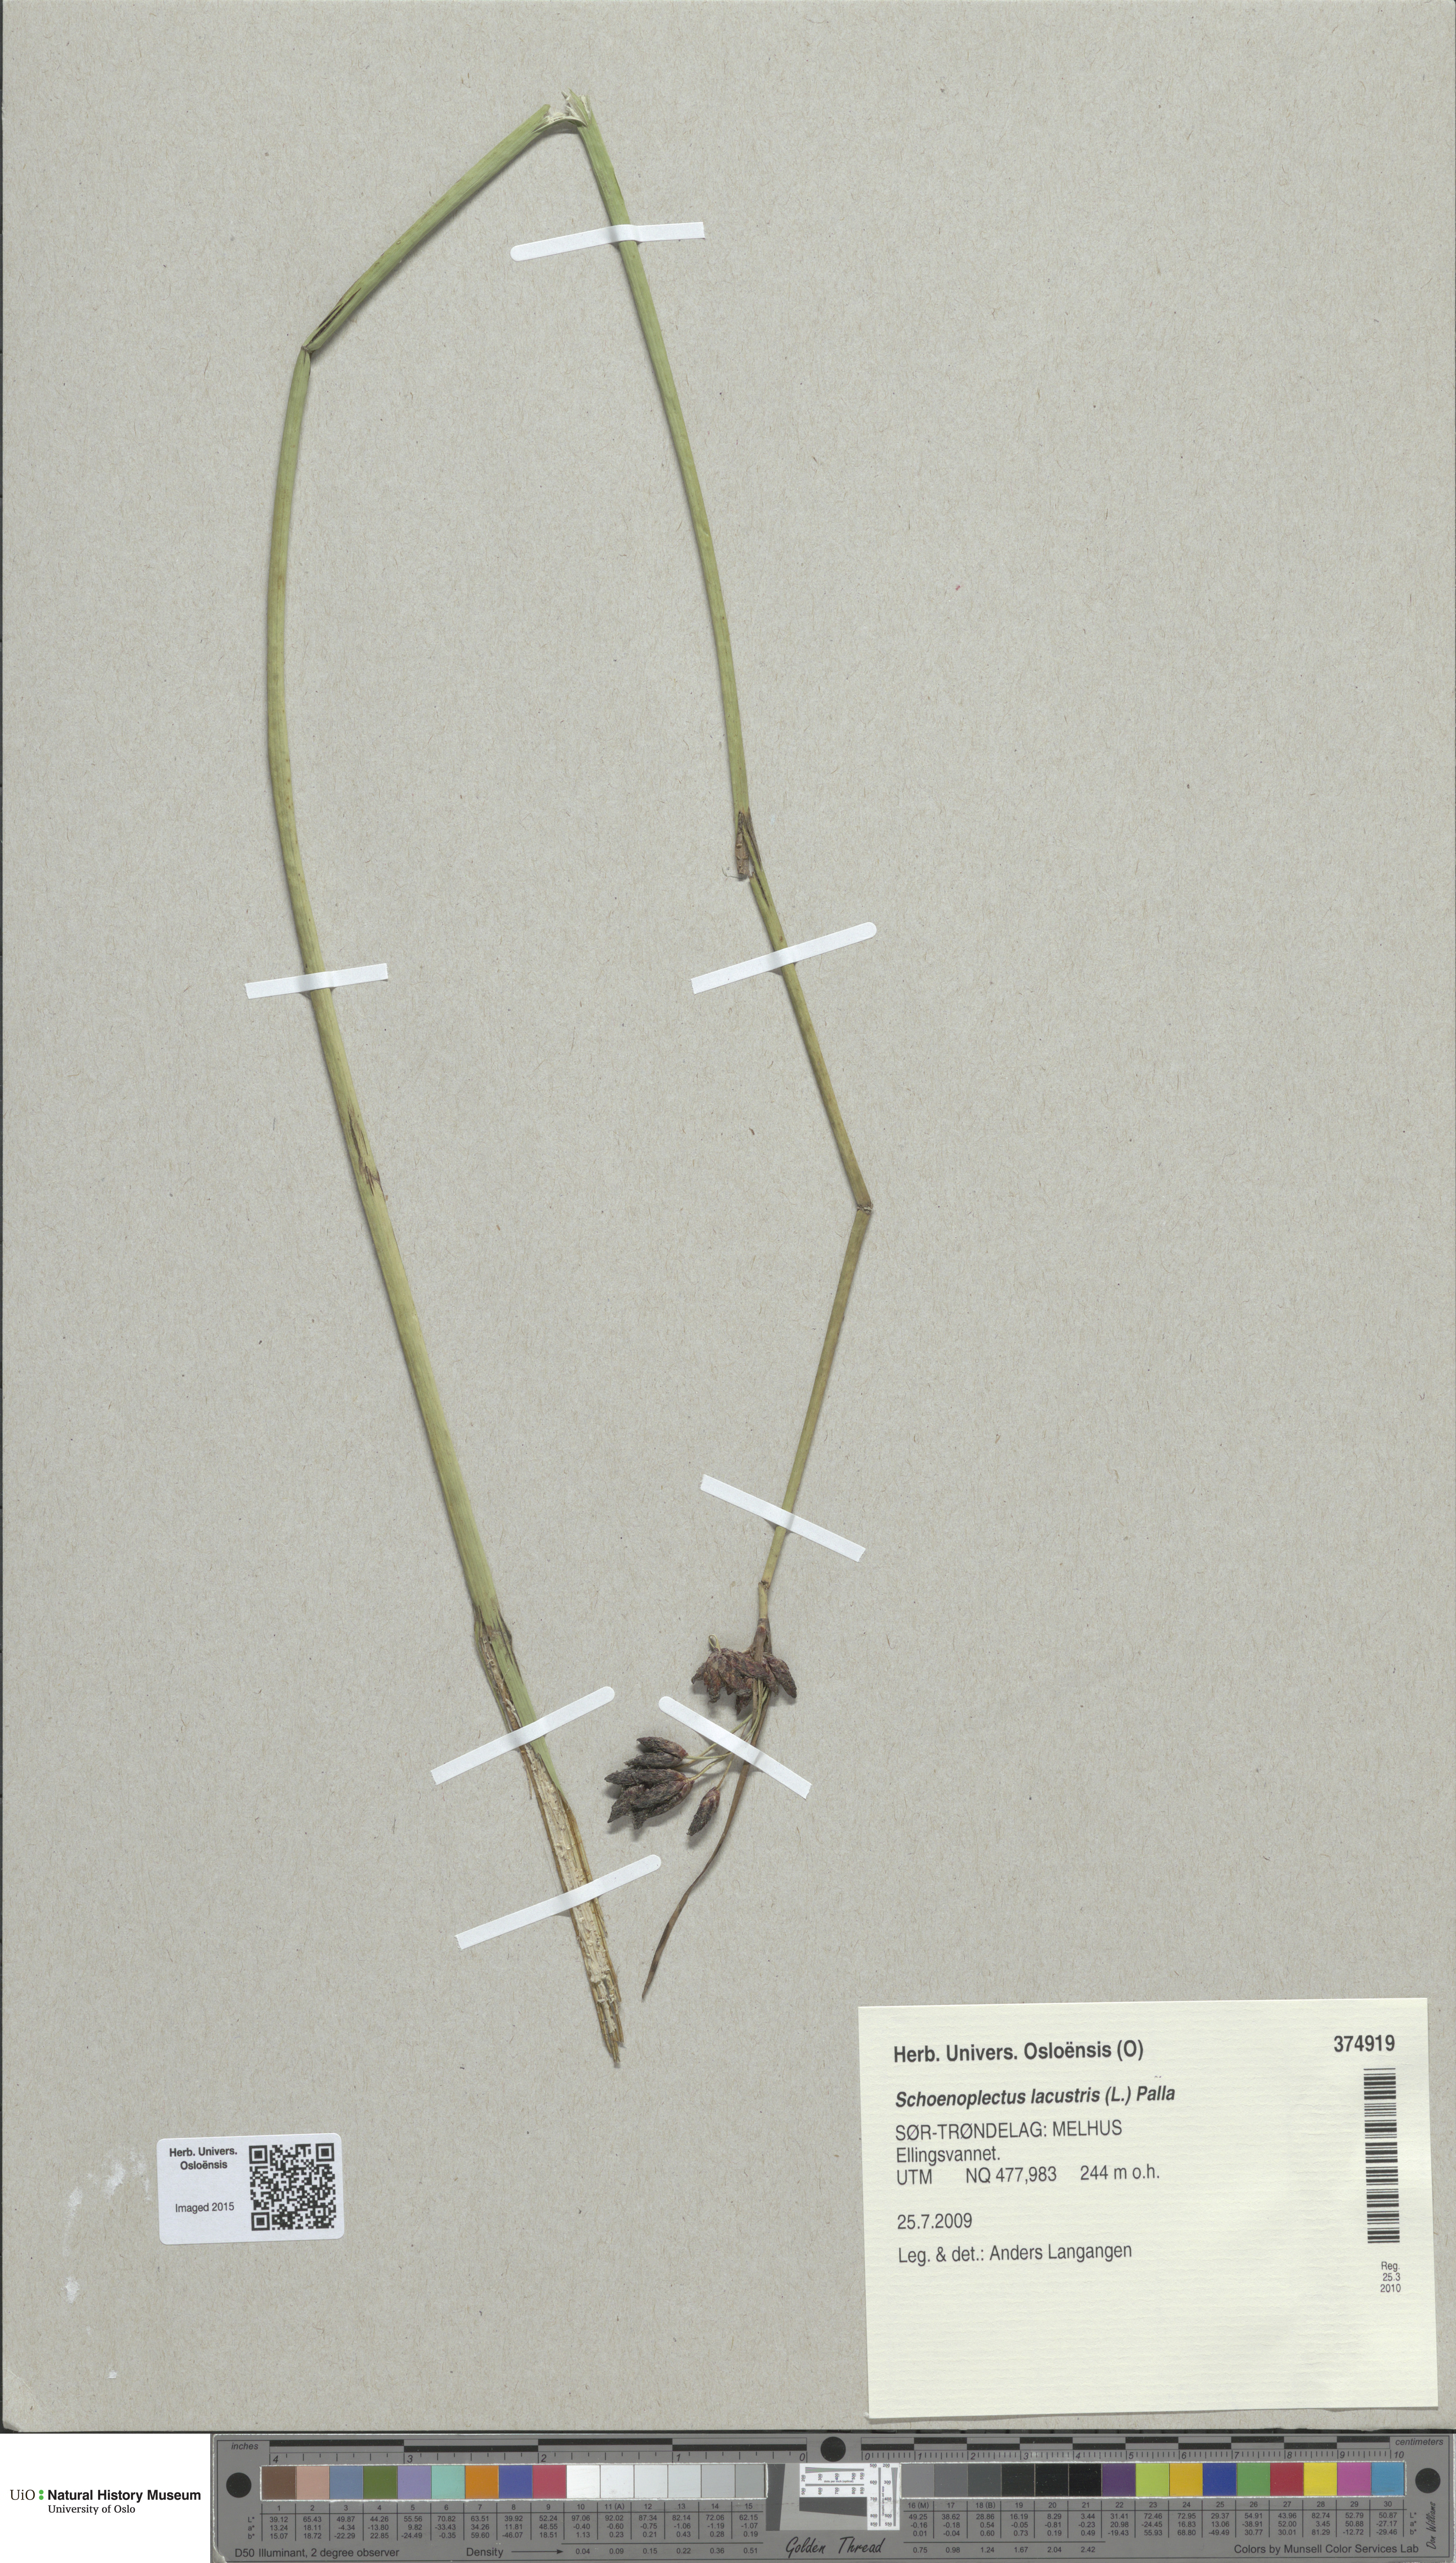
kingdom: Plantae
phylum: Tracheophyta
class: Liliopsida
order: Poales
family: Cyperaceae
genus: Schoenoplectus
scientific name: Schoenoplectus lacustris
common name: Common club-rush
